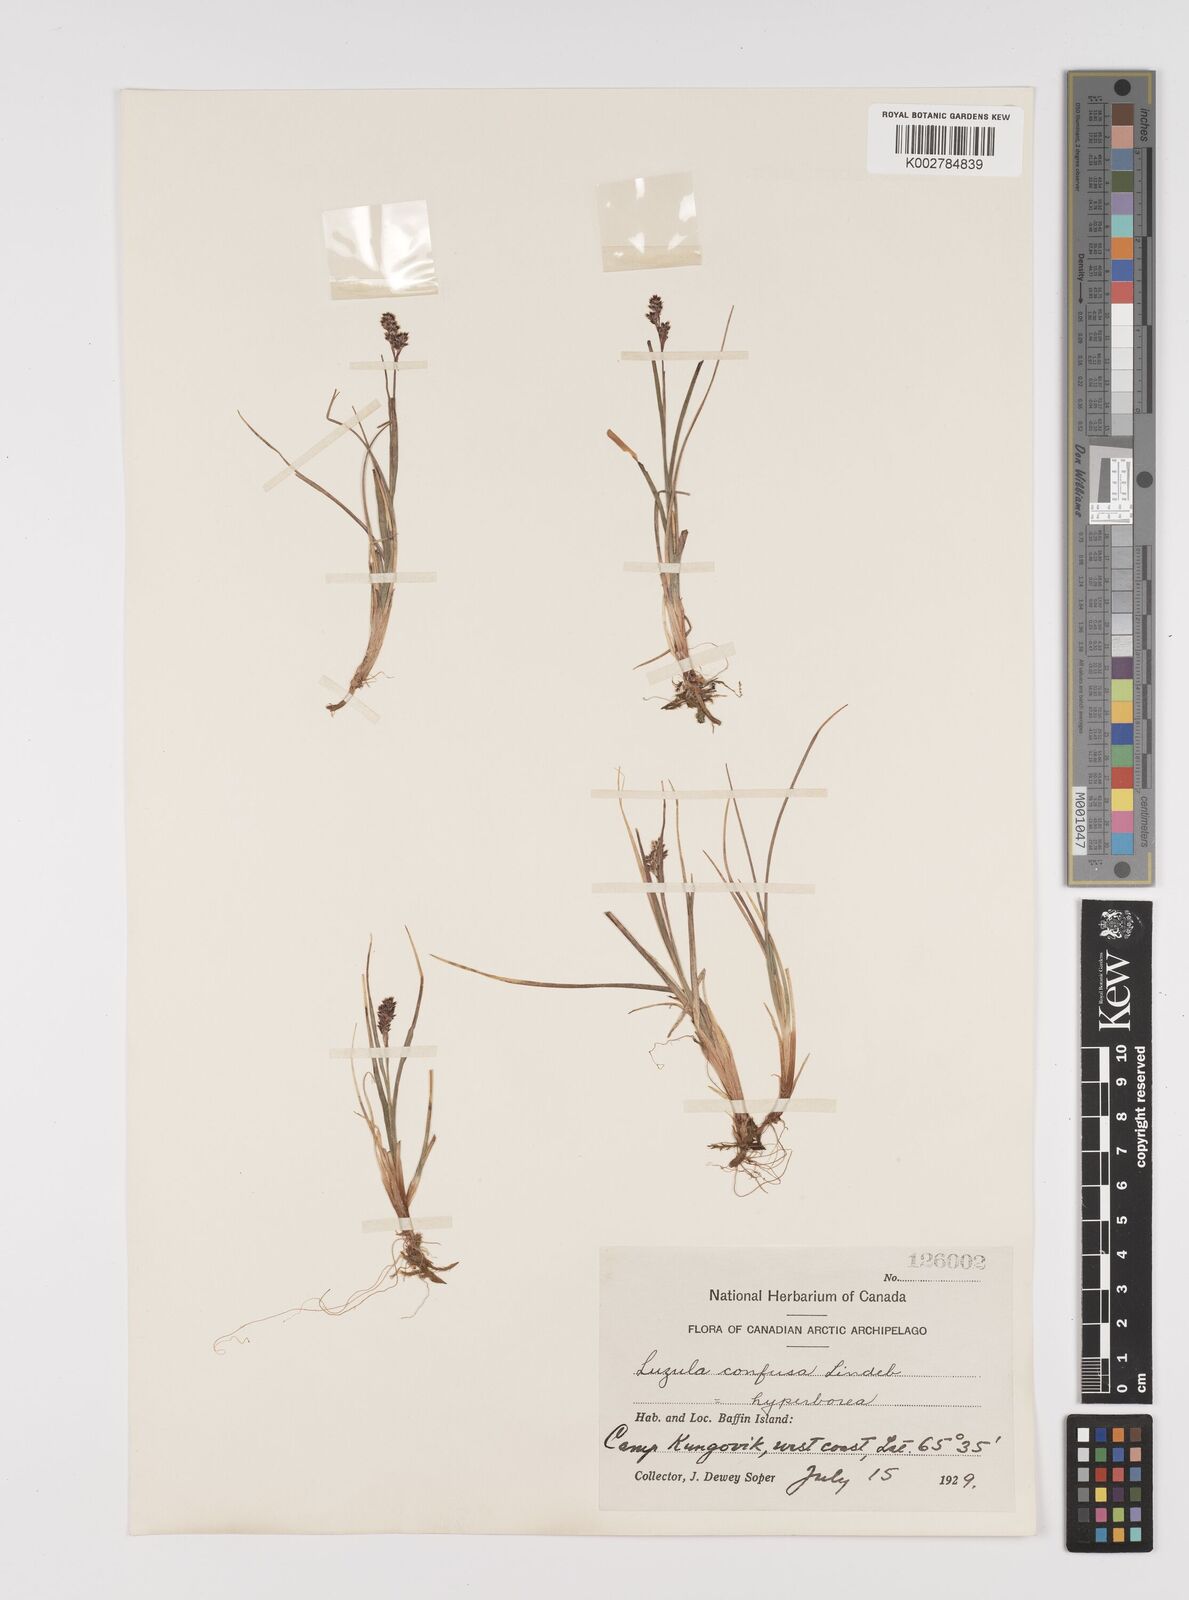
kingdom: Plantae
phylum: Tracheophyta
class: Liliopsida
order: Poales
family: Juncaceae
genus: Luzula
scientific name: Luzula confusa
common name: Northern wood rush
